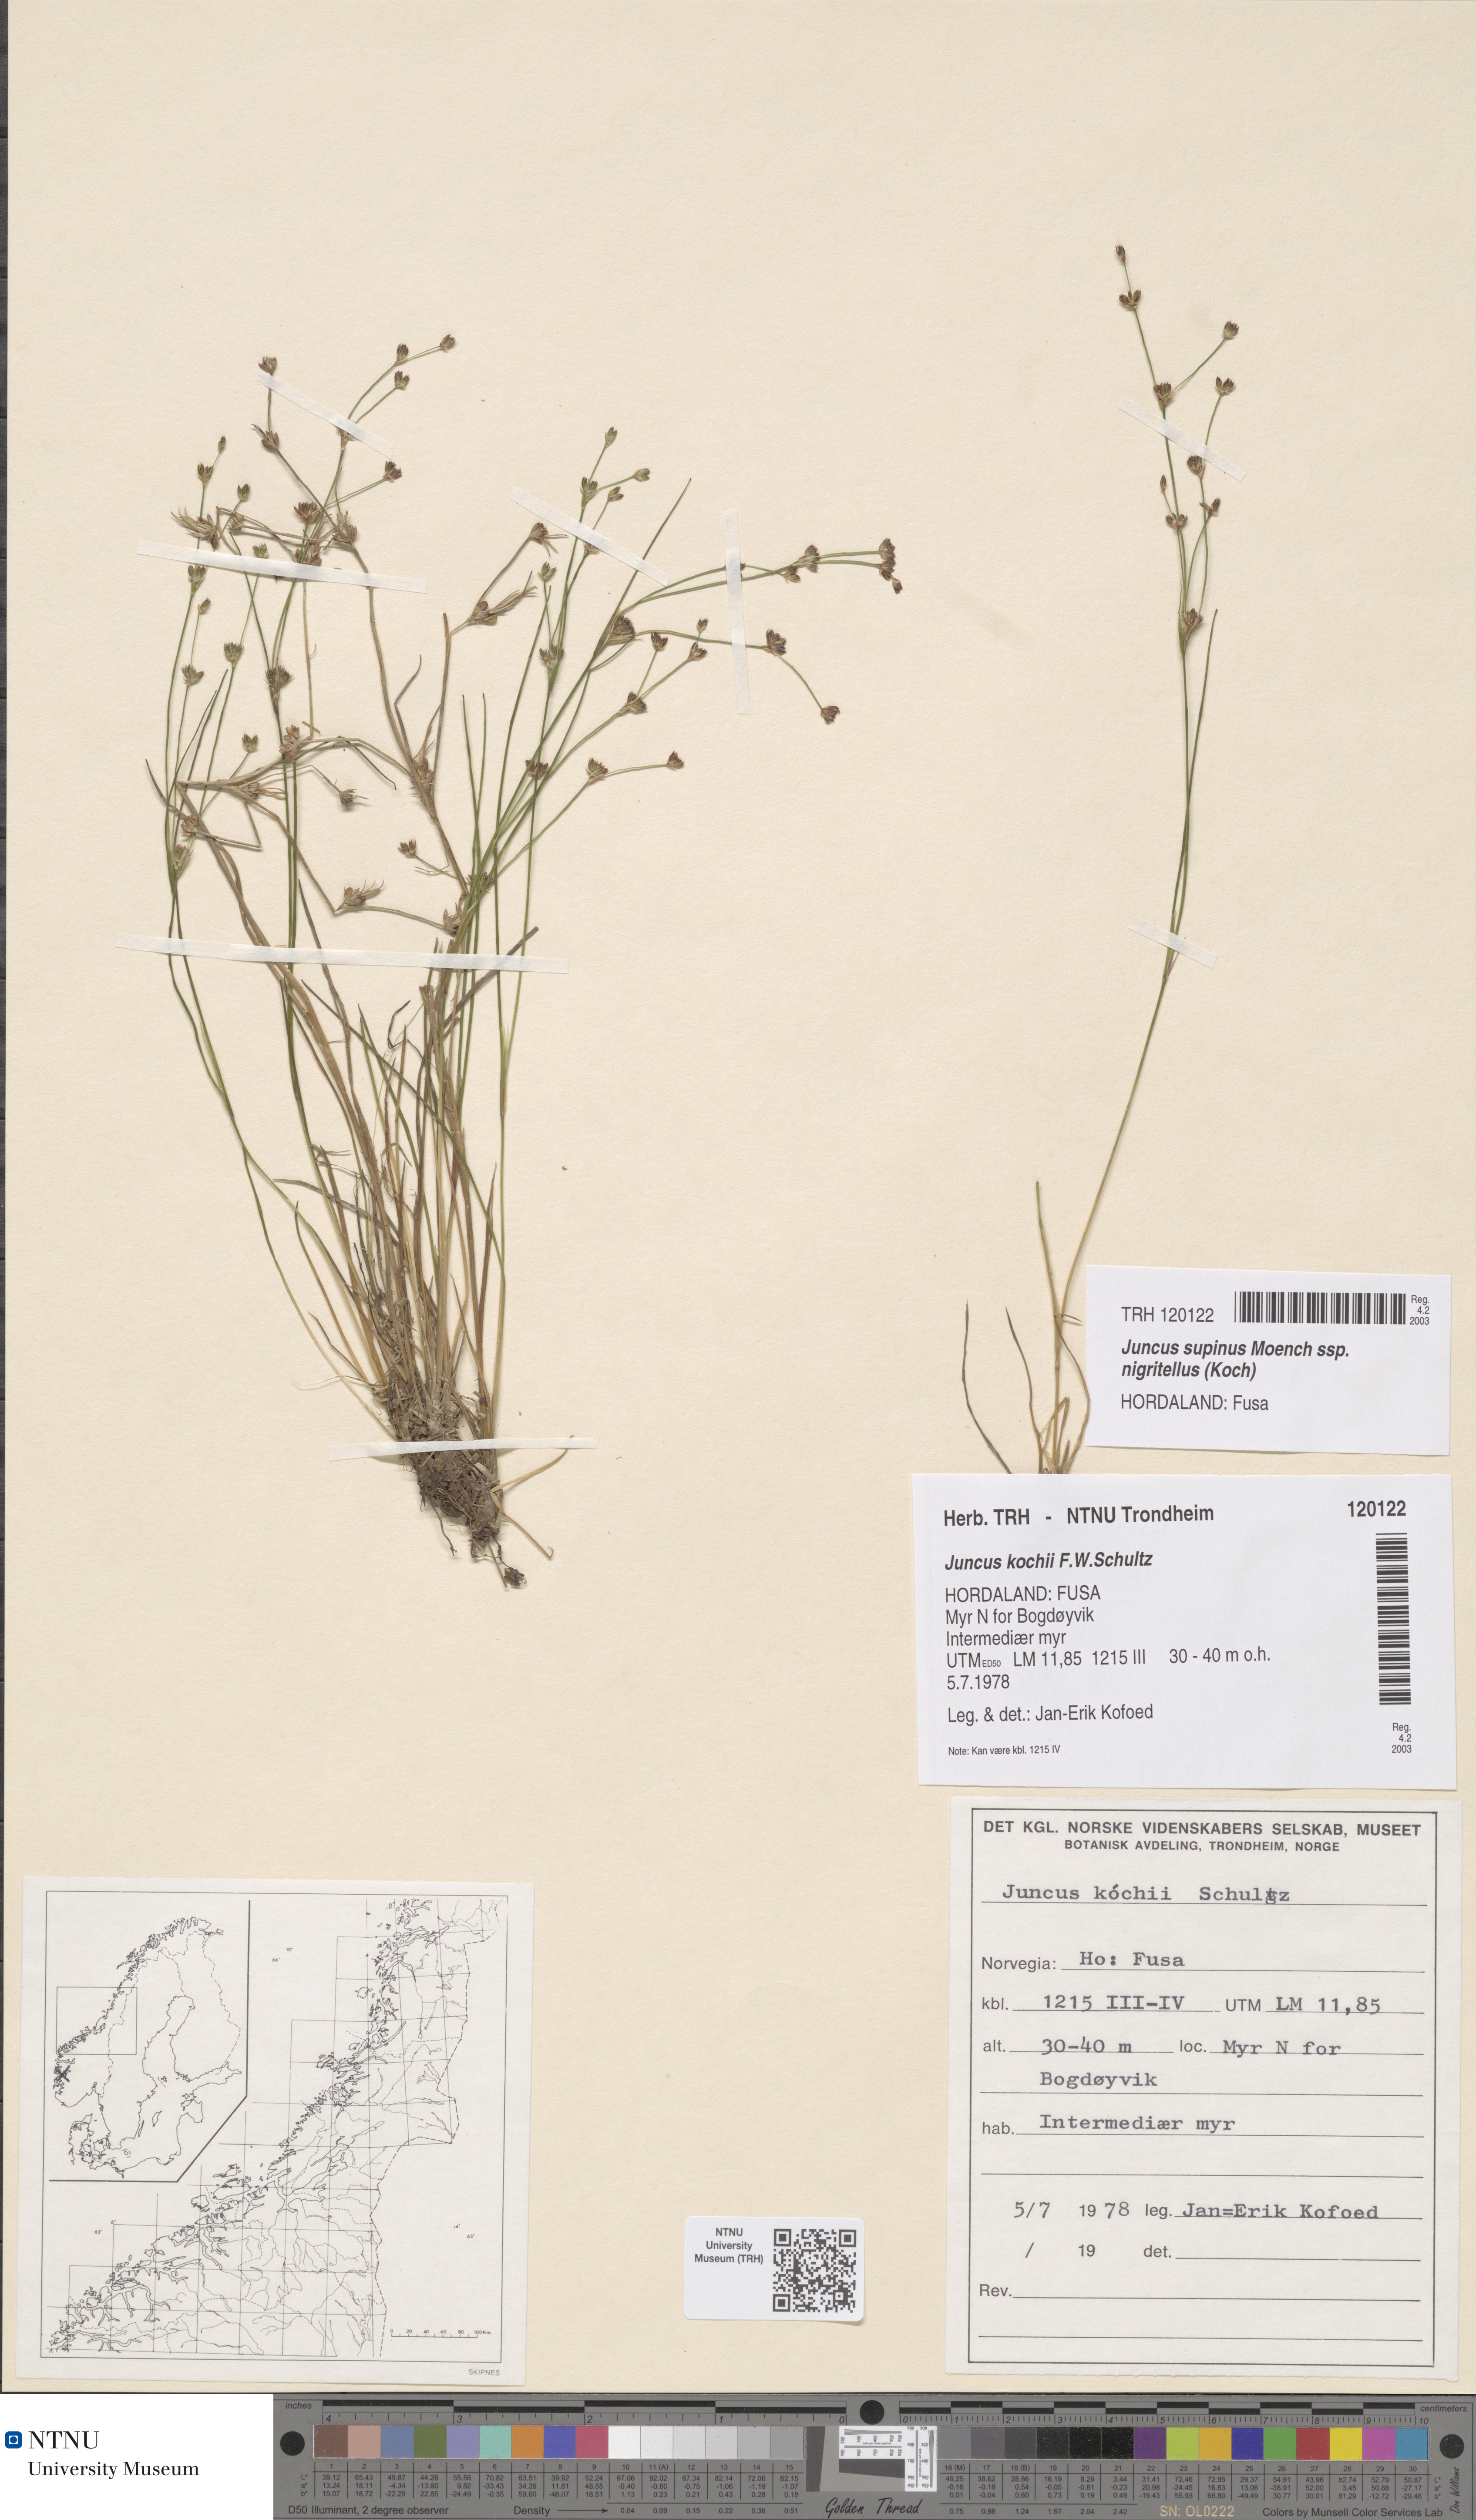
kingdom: Plantae
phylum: Tracheophyta
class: Liliopsida
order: Poales
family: Juncaceae
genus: Juncus
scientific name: Juncus bulbosus
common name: Bulbous rush
